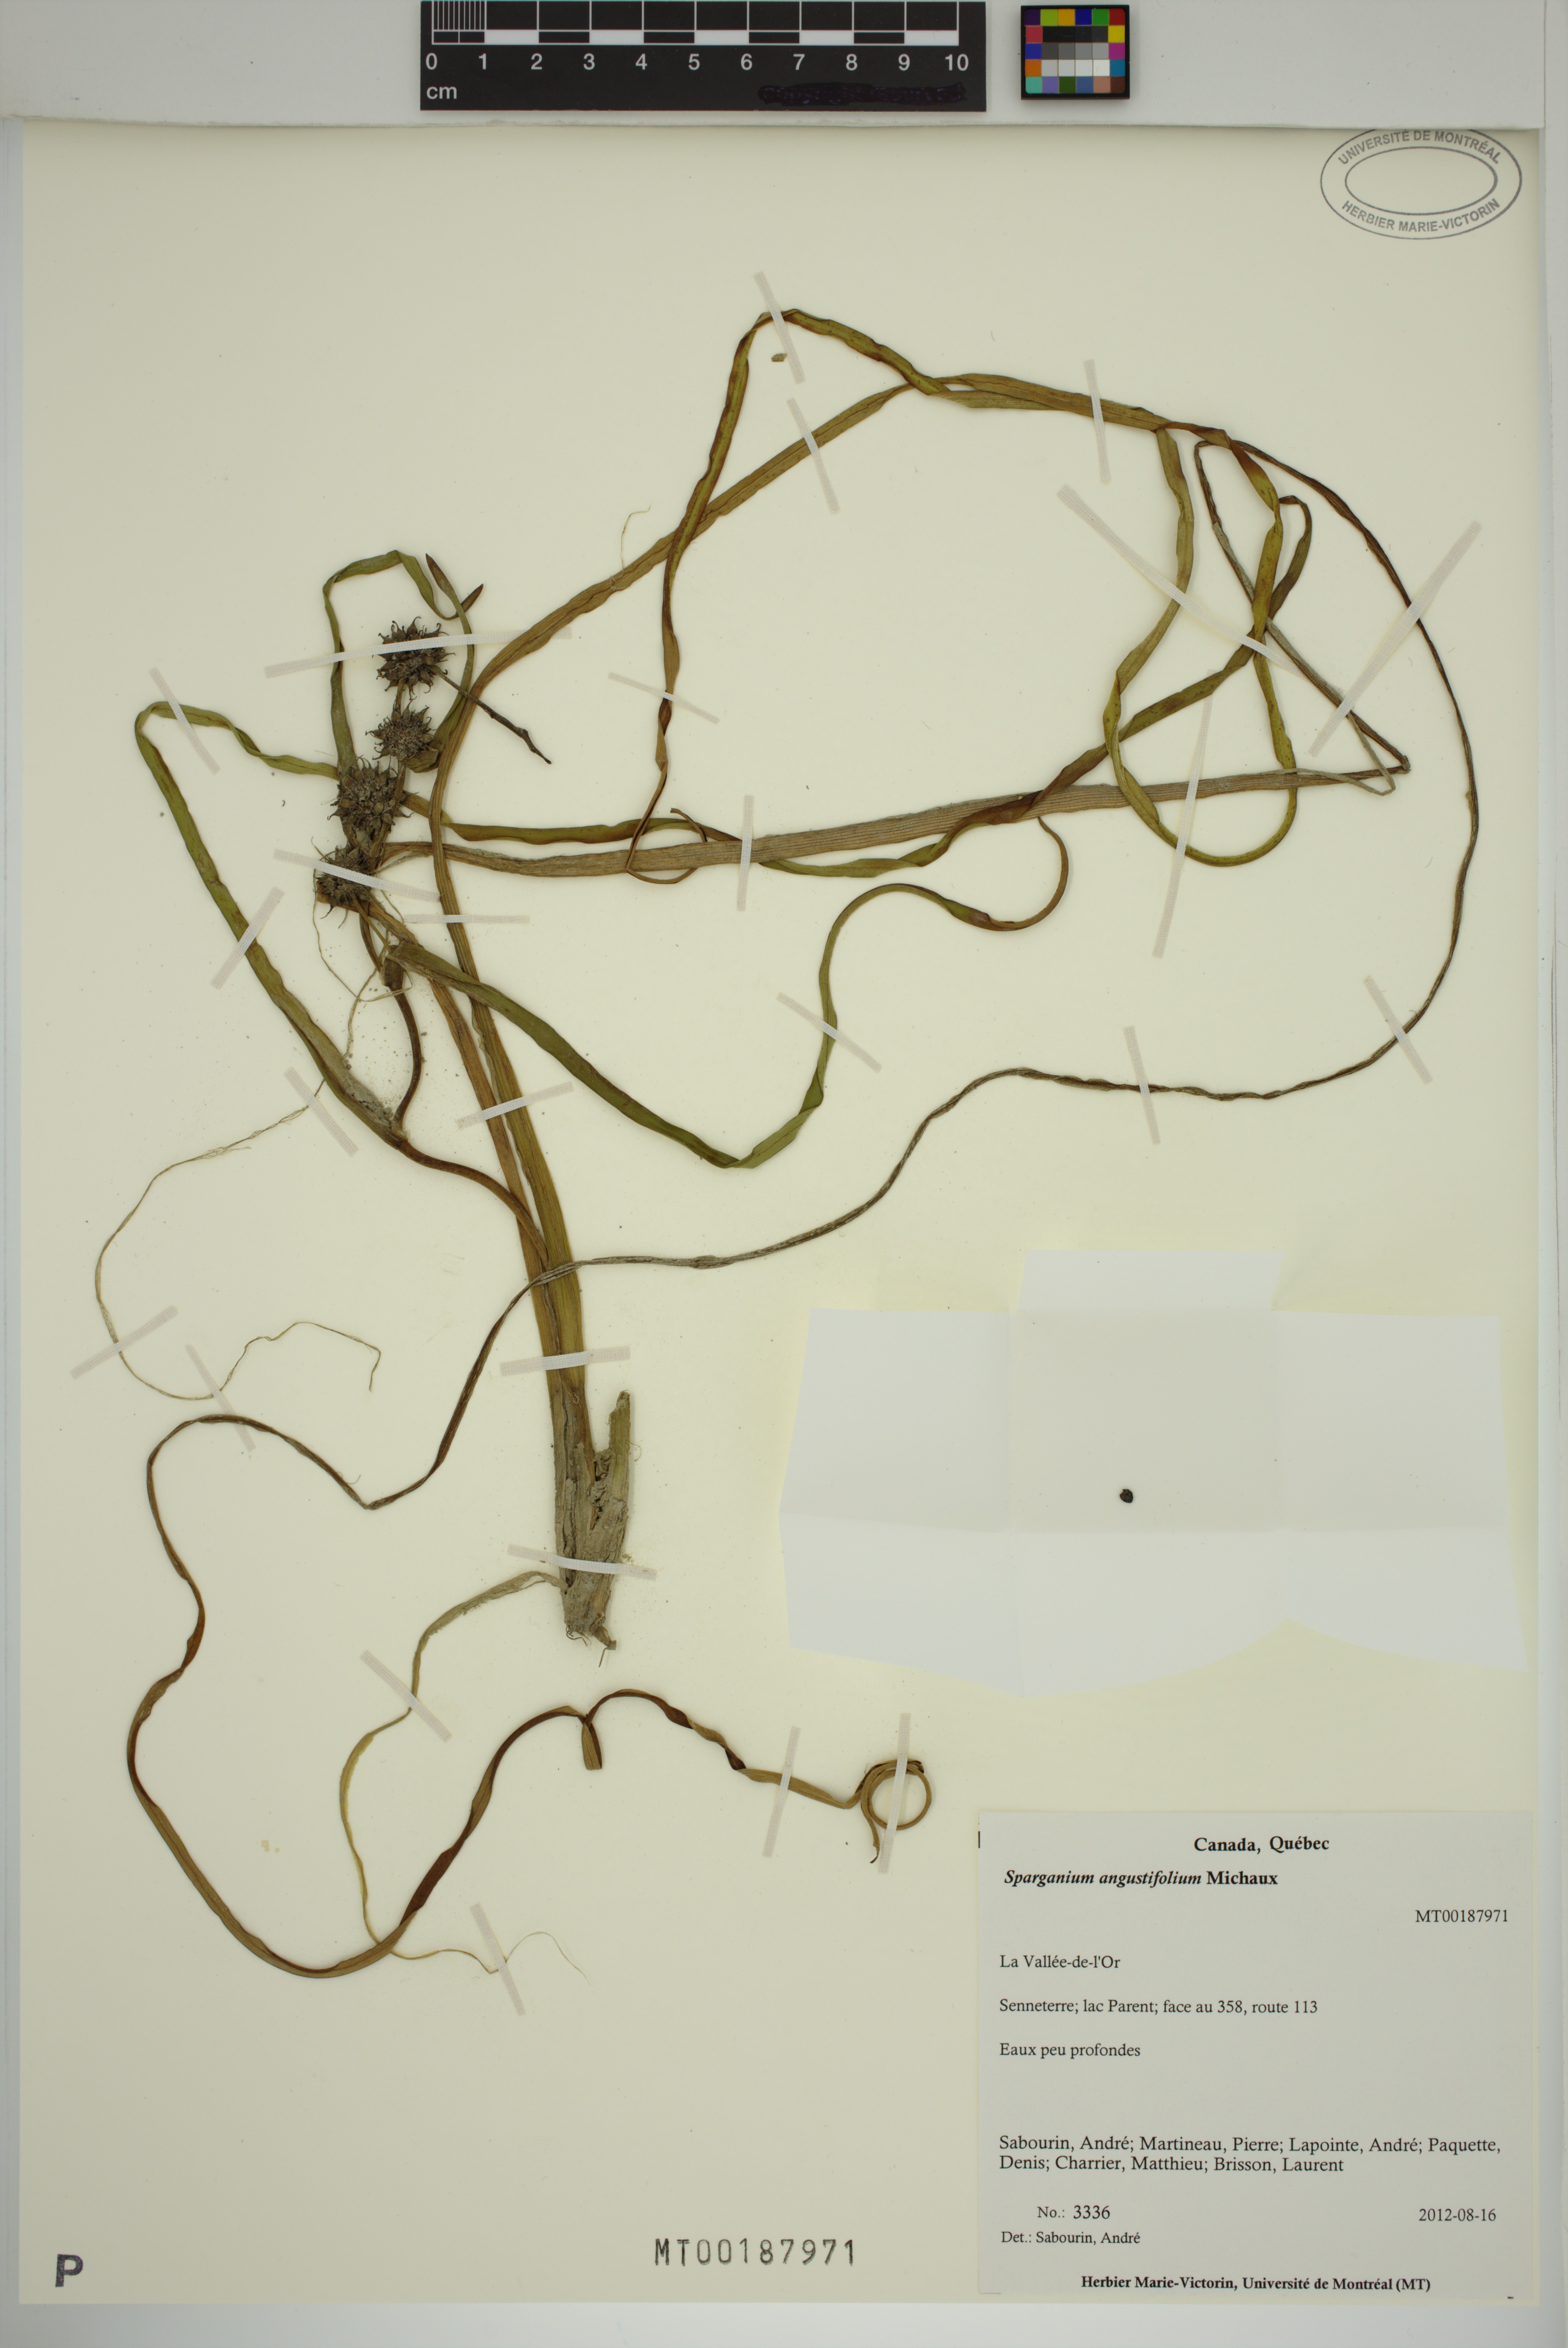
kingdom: Plantae
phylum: Tracheophyta
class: Liliopsida
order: Poales
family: Typhaceae
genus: Sparganium
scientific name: Sparganium angustifolium
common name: Floating bur-reed
